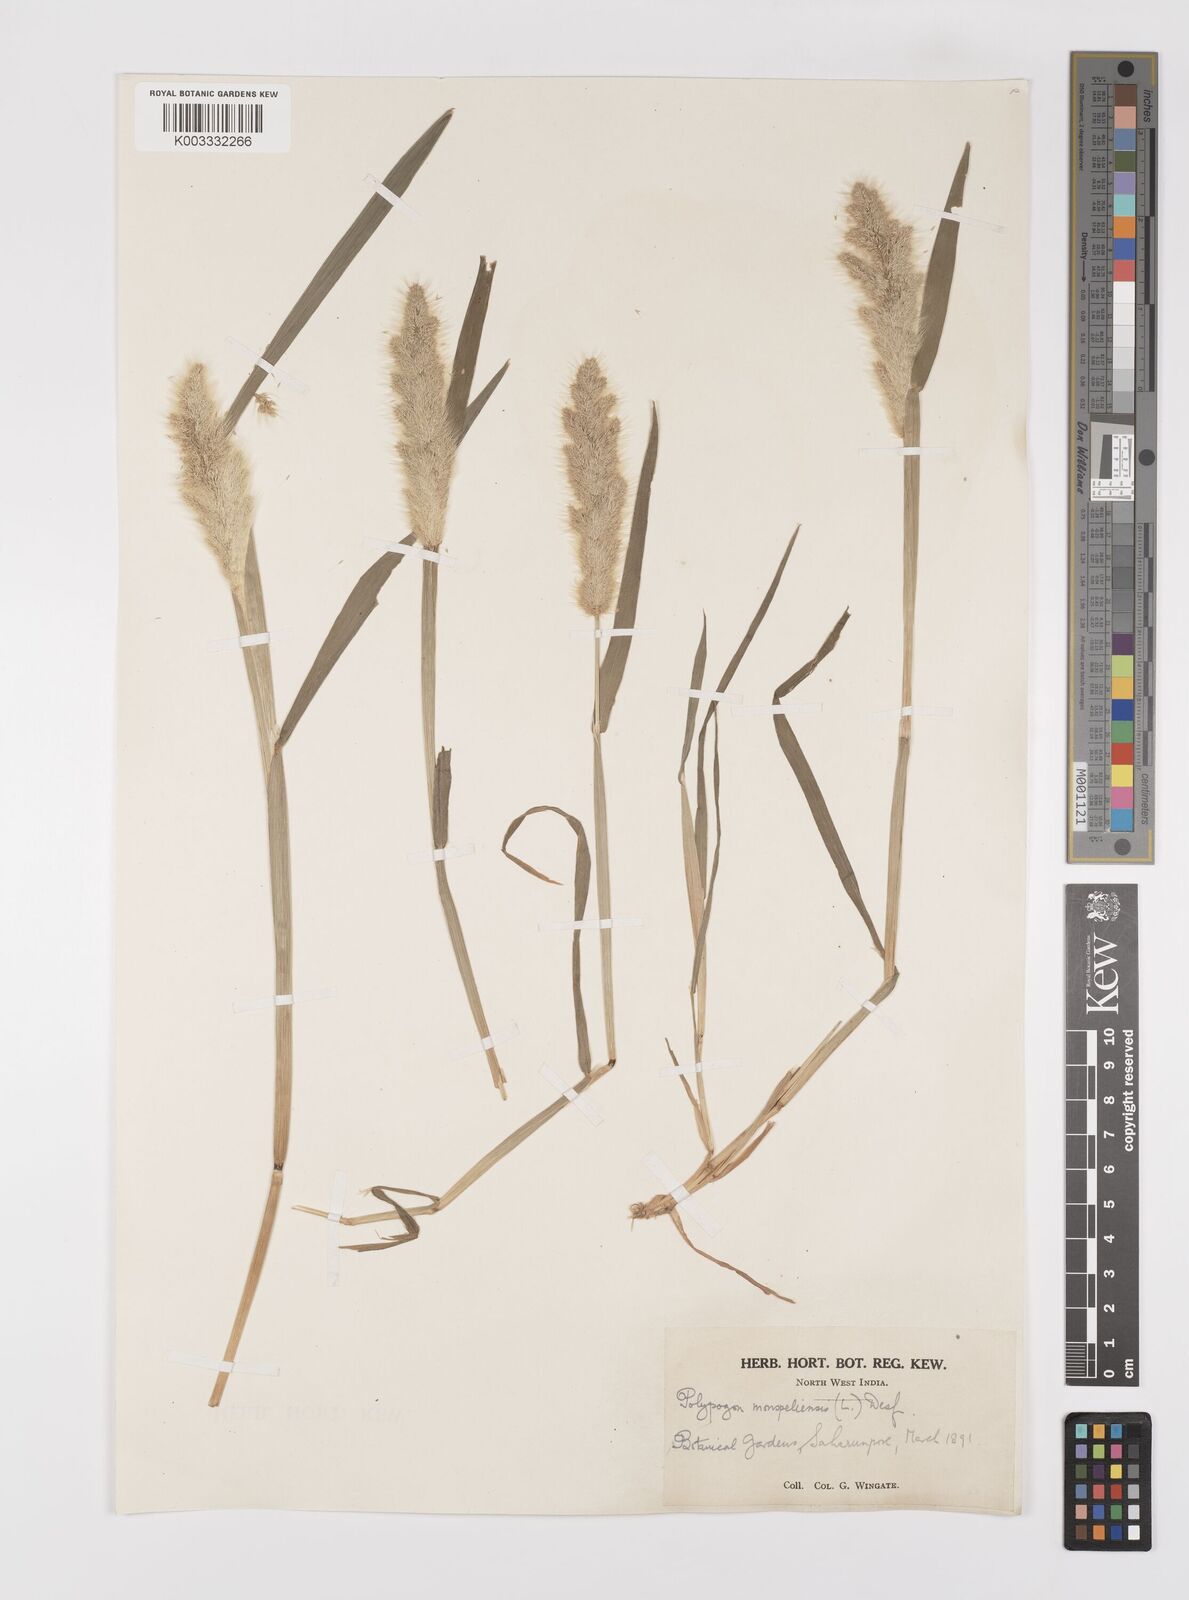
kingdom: Plantae
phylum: Tracheophyta
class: Liliopsida
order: Poales
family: Poaceae
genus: Polypogon
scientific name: Polypogon monspeliensis
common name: Annual rabbitsfoot grass
